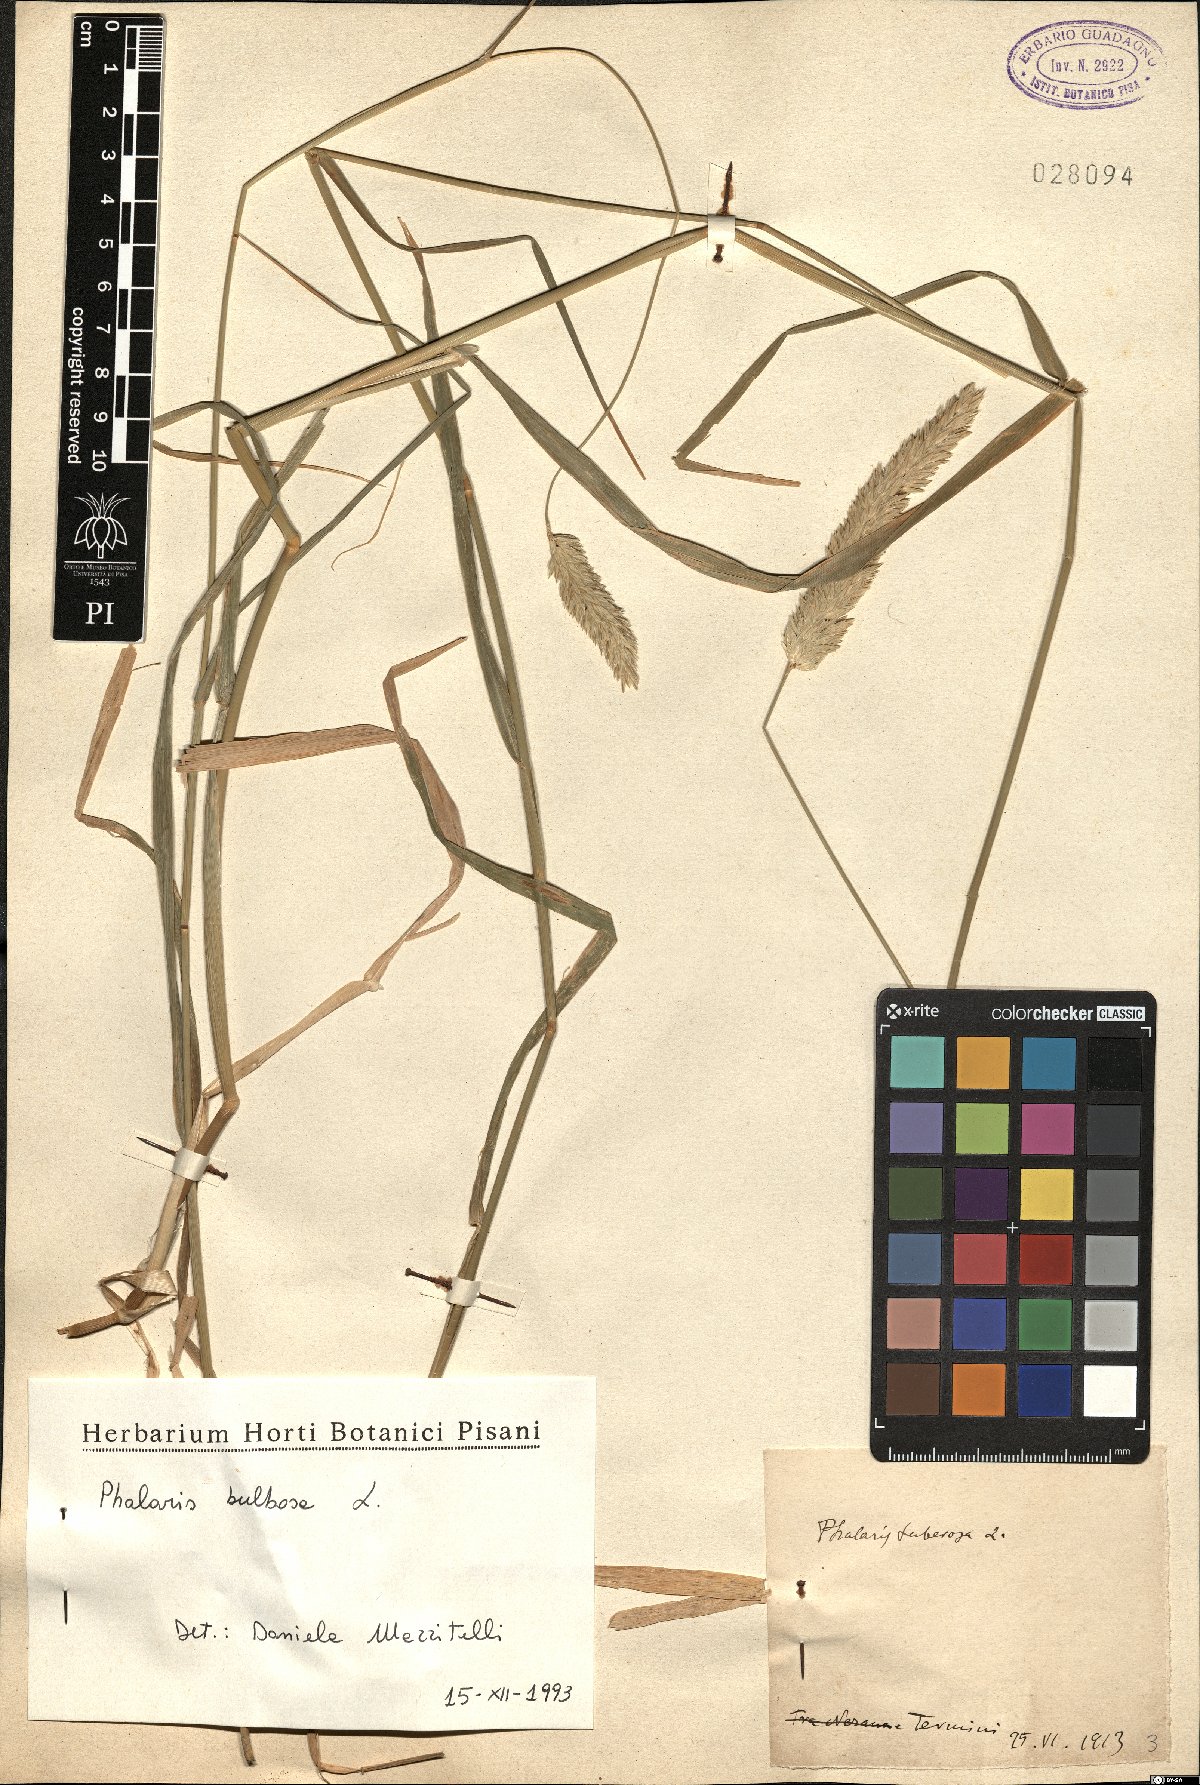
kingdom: Plantae
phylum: Tracheophyta
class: Liliopsida
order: Poales
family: Poaceae
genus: Phleum
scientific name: Phleum subulatum
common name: Italian timothy
